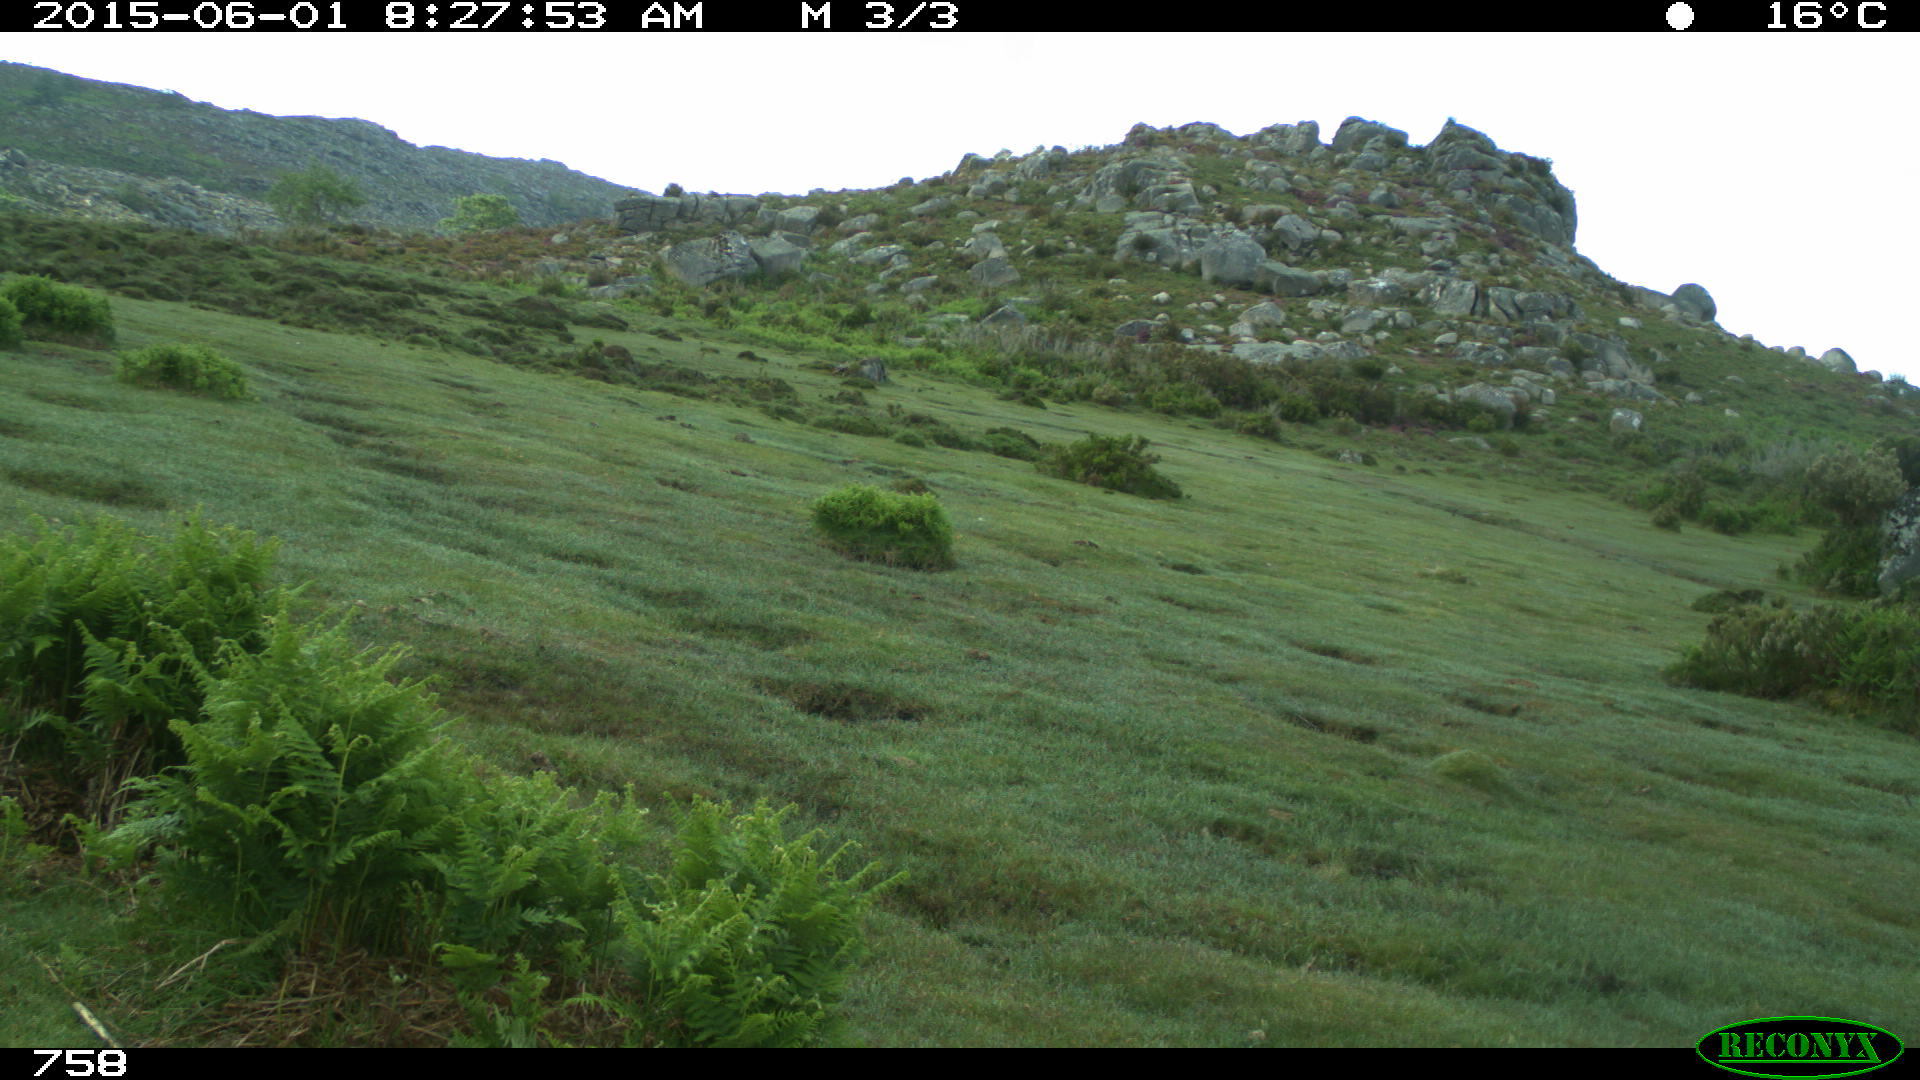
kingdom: Animalia
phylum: Chordata
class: Mammalia
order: Perissodactyla
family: Equidae
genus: Equus
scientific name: Equus caballus
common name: Horse
